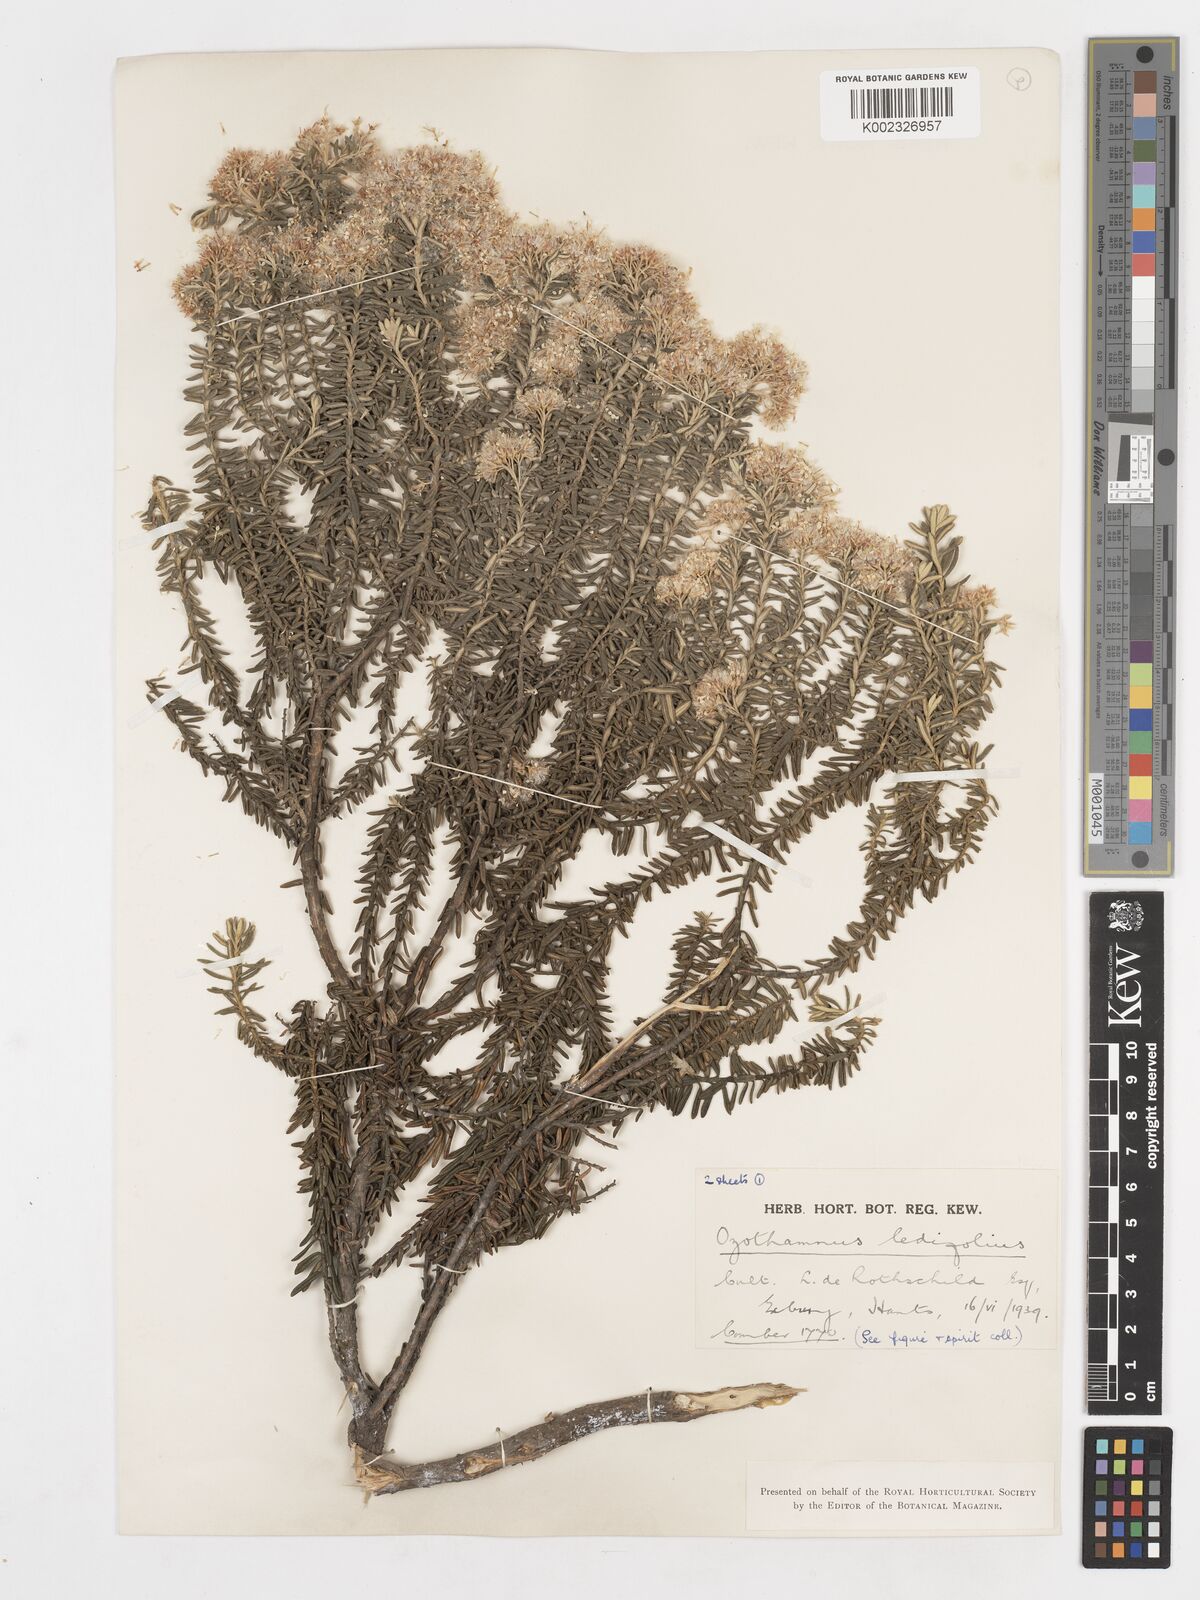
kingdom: Plantae
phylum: Tracheophyta
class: Magnoliopsida
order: Asterales
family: Asteraceae
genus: Ozothamnus
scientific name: Ozothamnus ledifolius
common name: Kerosene-weed
